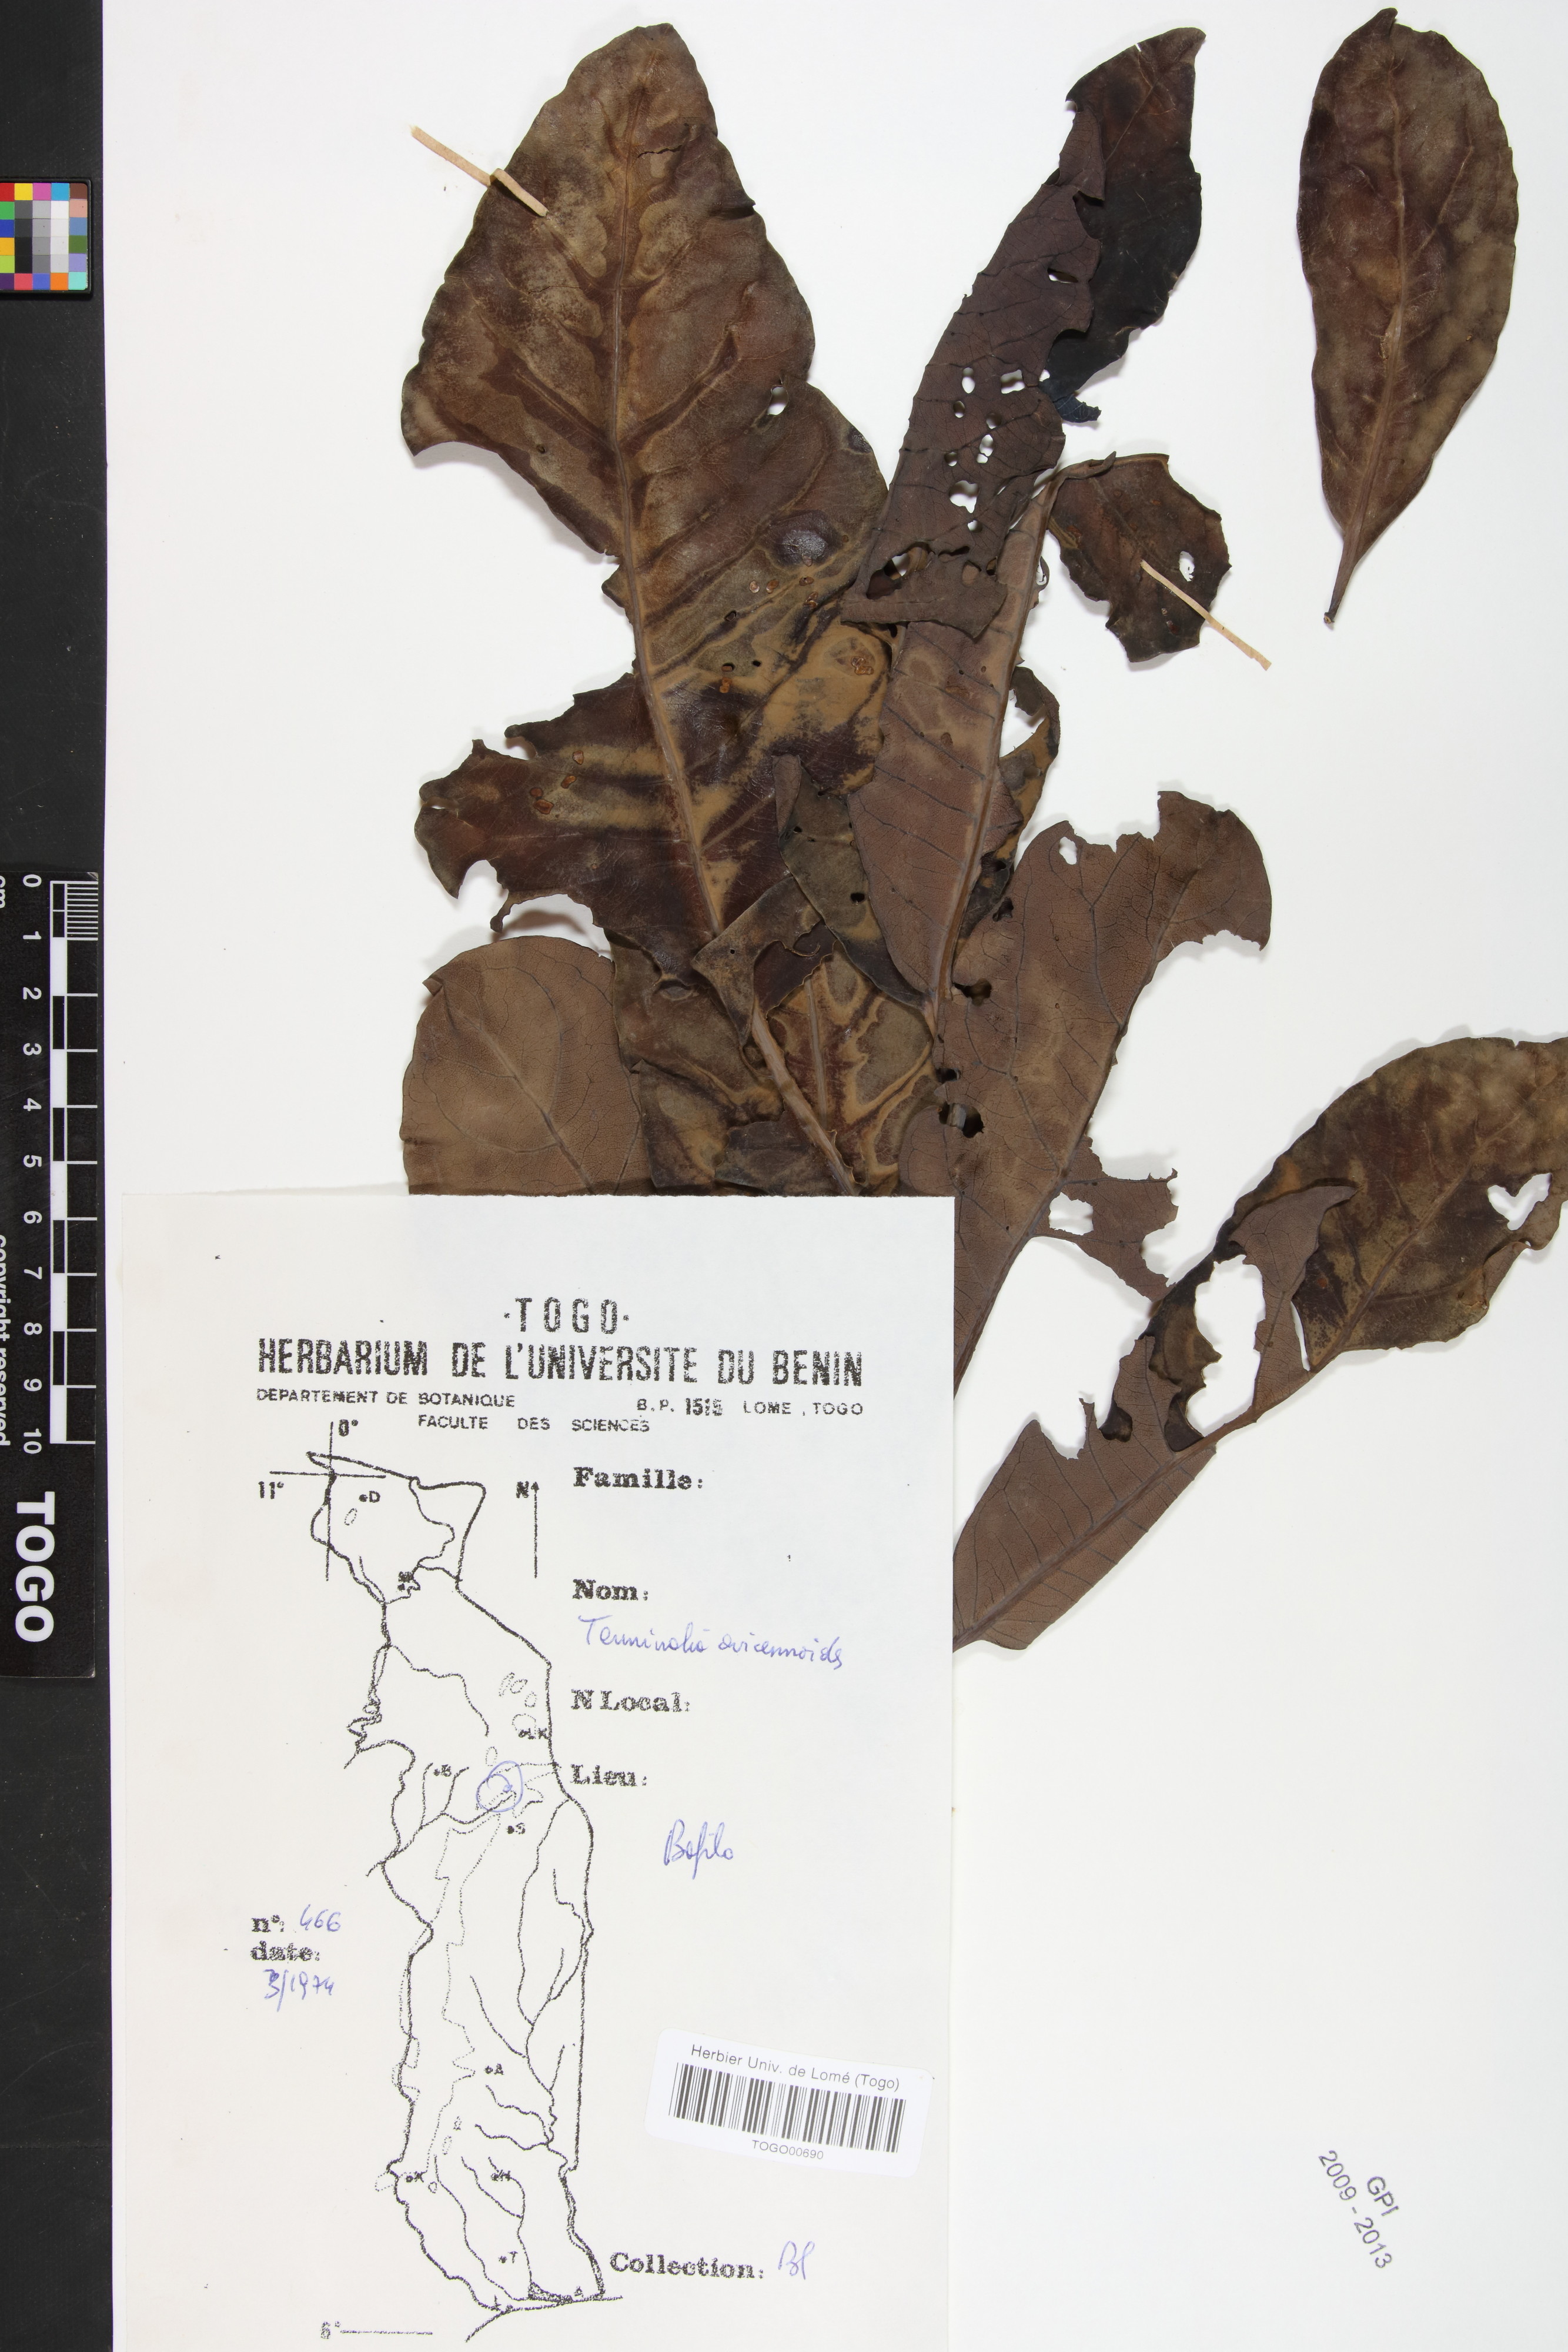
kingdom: Plantae
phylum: Tracheophyta
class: Magnoliopsida
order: Myrtales
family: Combretaceae
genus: Terminalia
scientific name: Terminalia avicennioides
